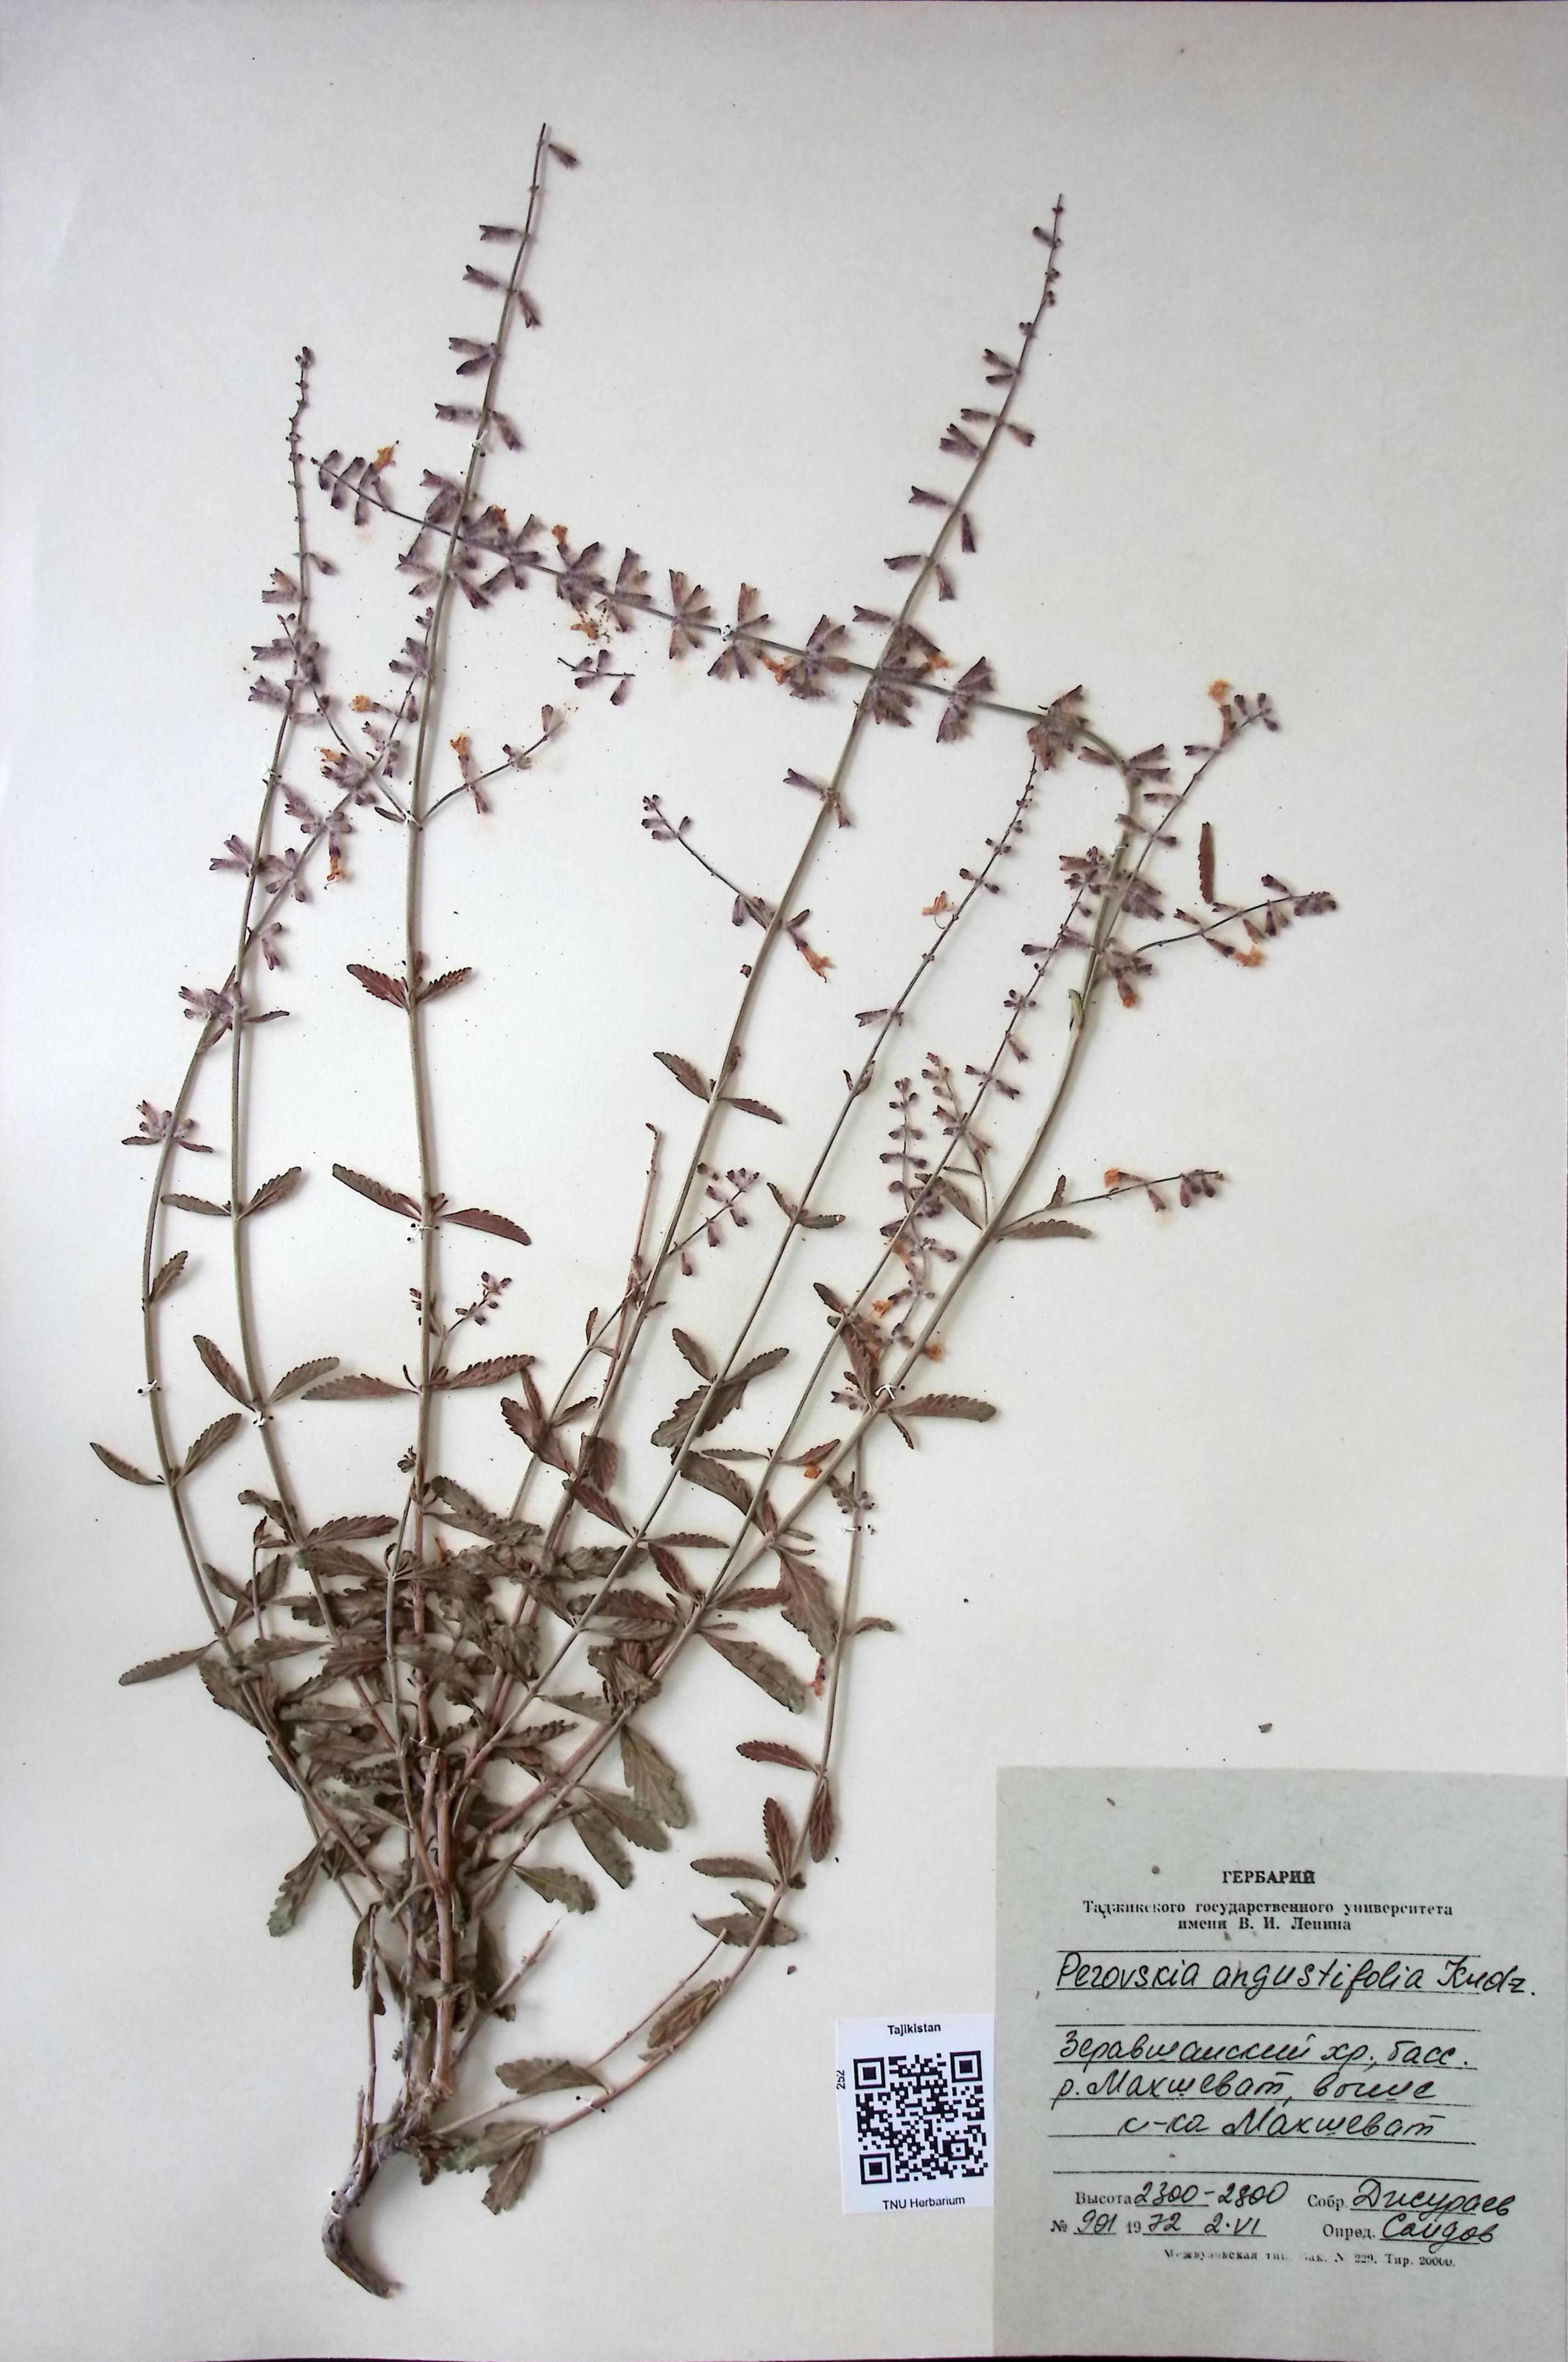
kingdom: Plantae
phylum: Tracheophyta
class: Magnoliopsida
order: Lamiales
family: Lamiaceae
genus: Salvia
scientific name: Salvia karelinii
